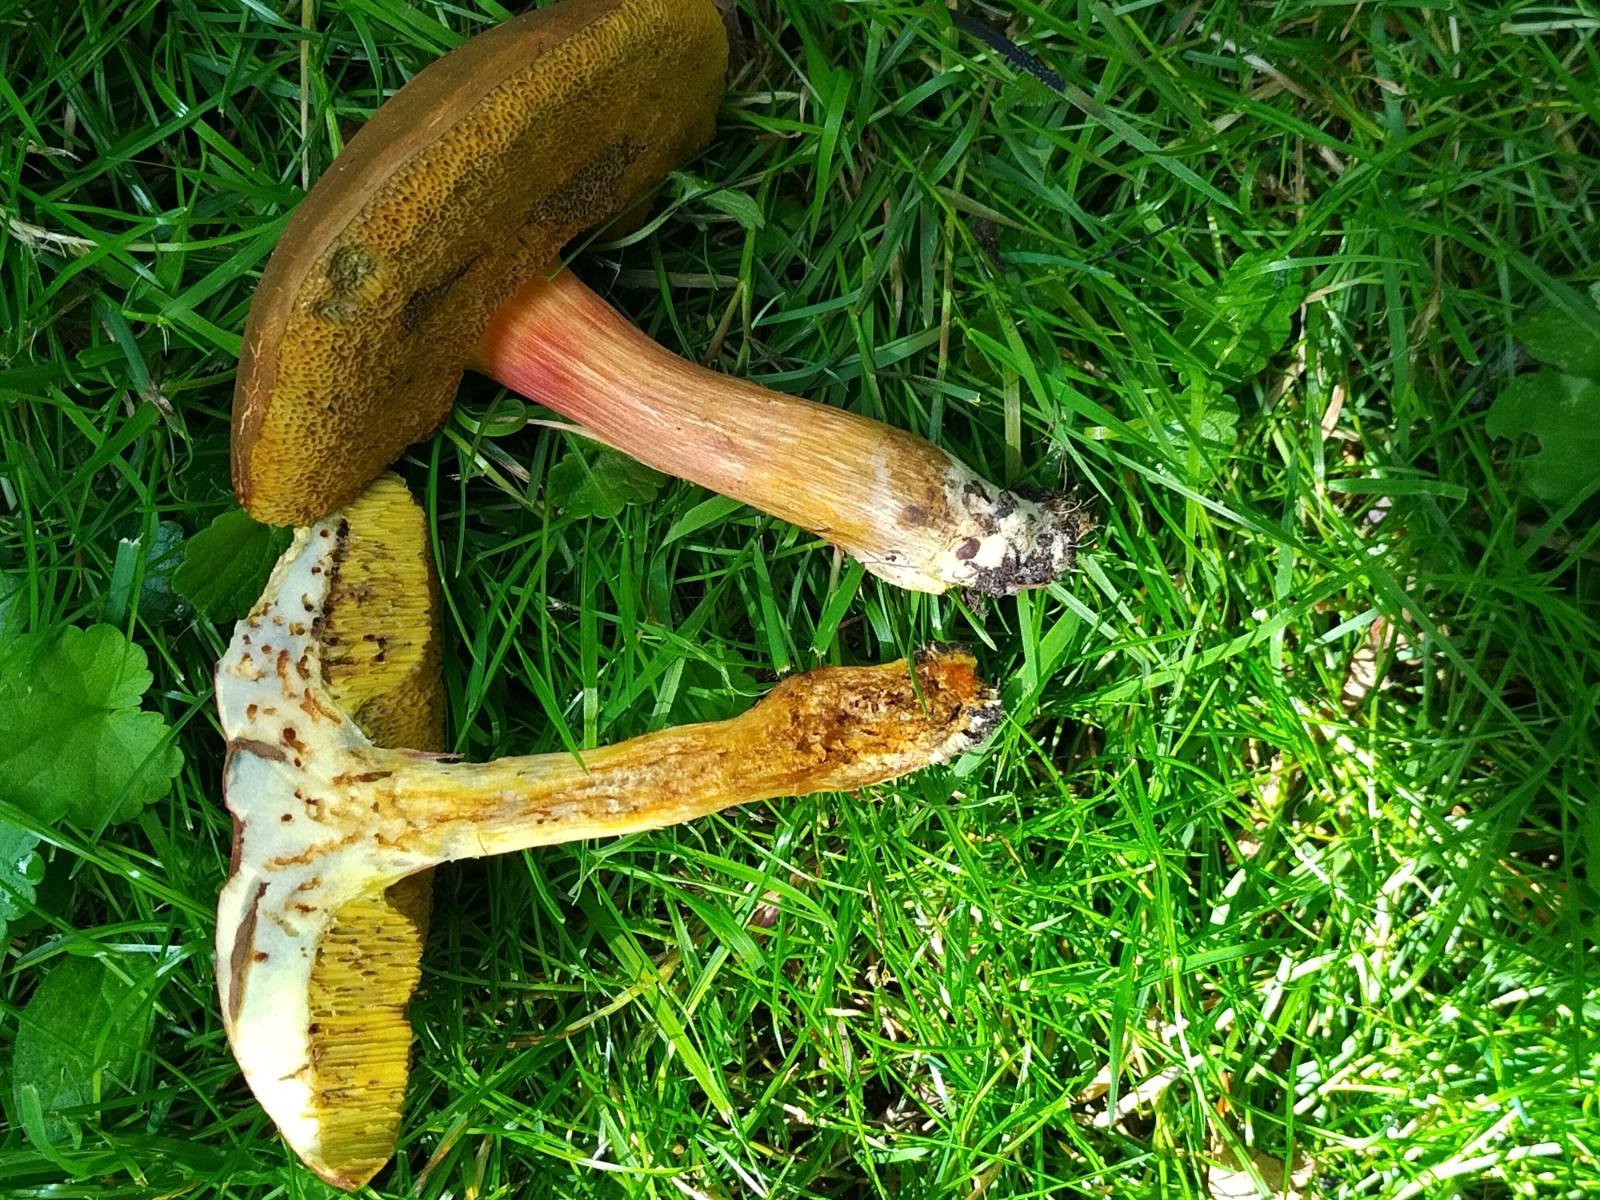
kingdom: Fungi
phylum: Basidiomycota
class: Agaricomycetes
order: Boletales
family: Boletaceae
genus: Xerocomellus
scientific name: Xerocomellus chrysenteron
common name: rødsprukken rørhat
